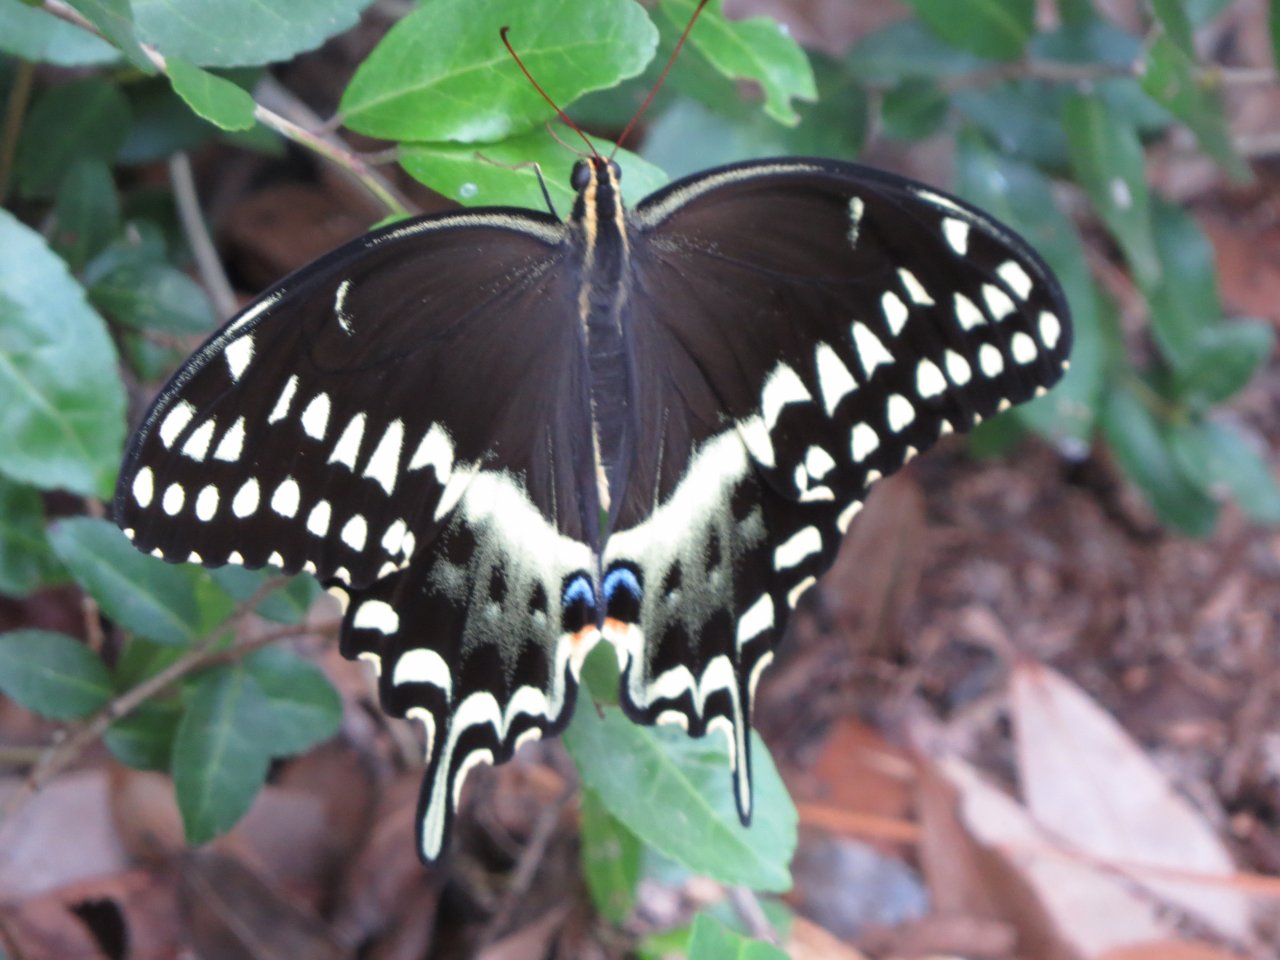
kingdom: Animalia
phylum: Arthropoda
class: Insecta
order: Lepidoptera
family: Papilionidae
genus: Pterourus
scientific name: Pterourus palamedes
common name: Palamedes Swallowtail
